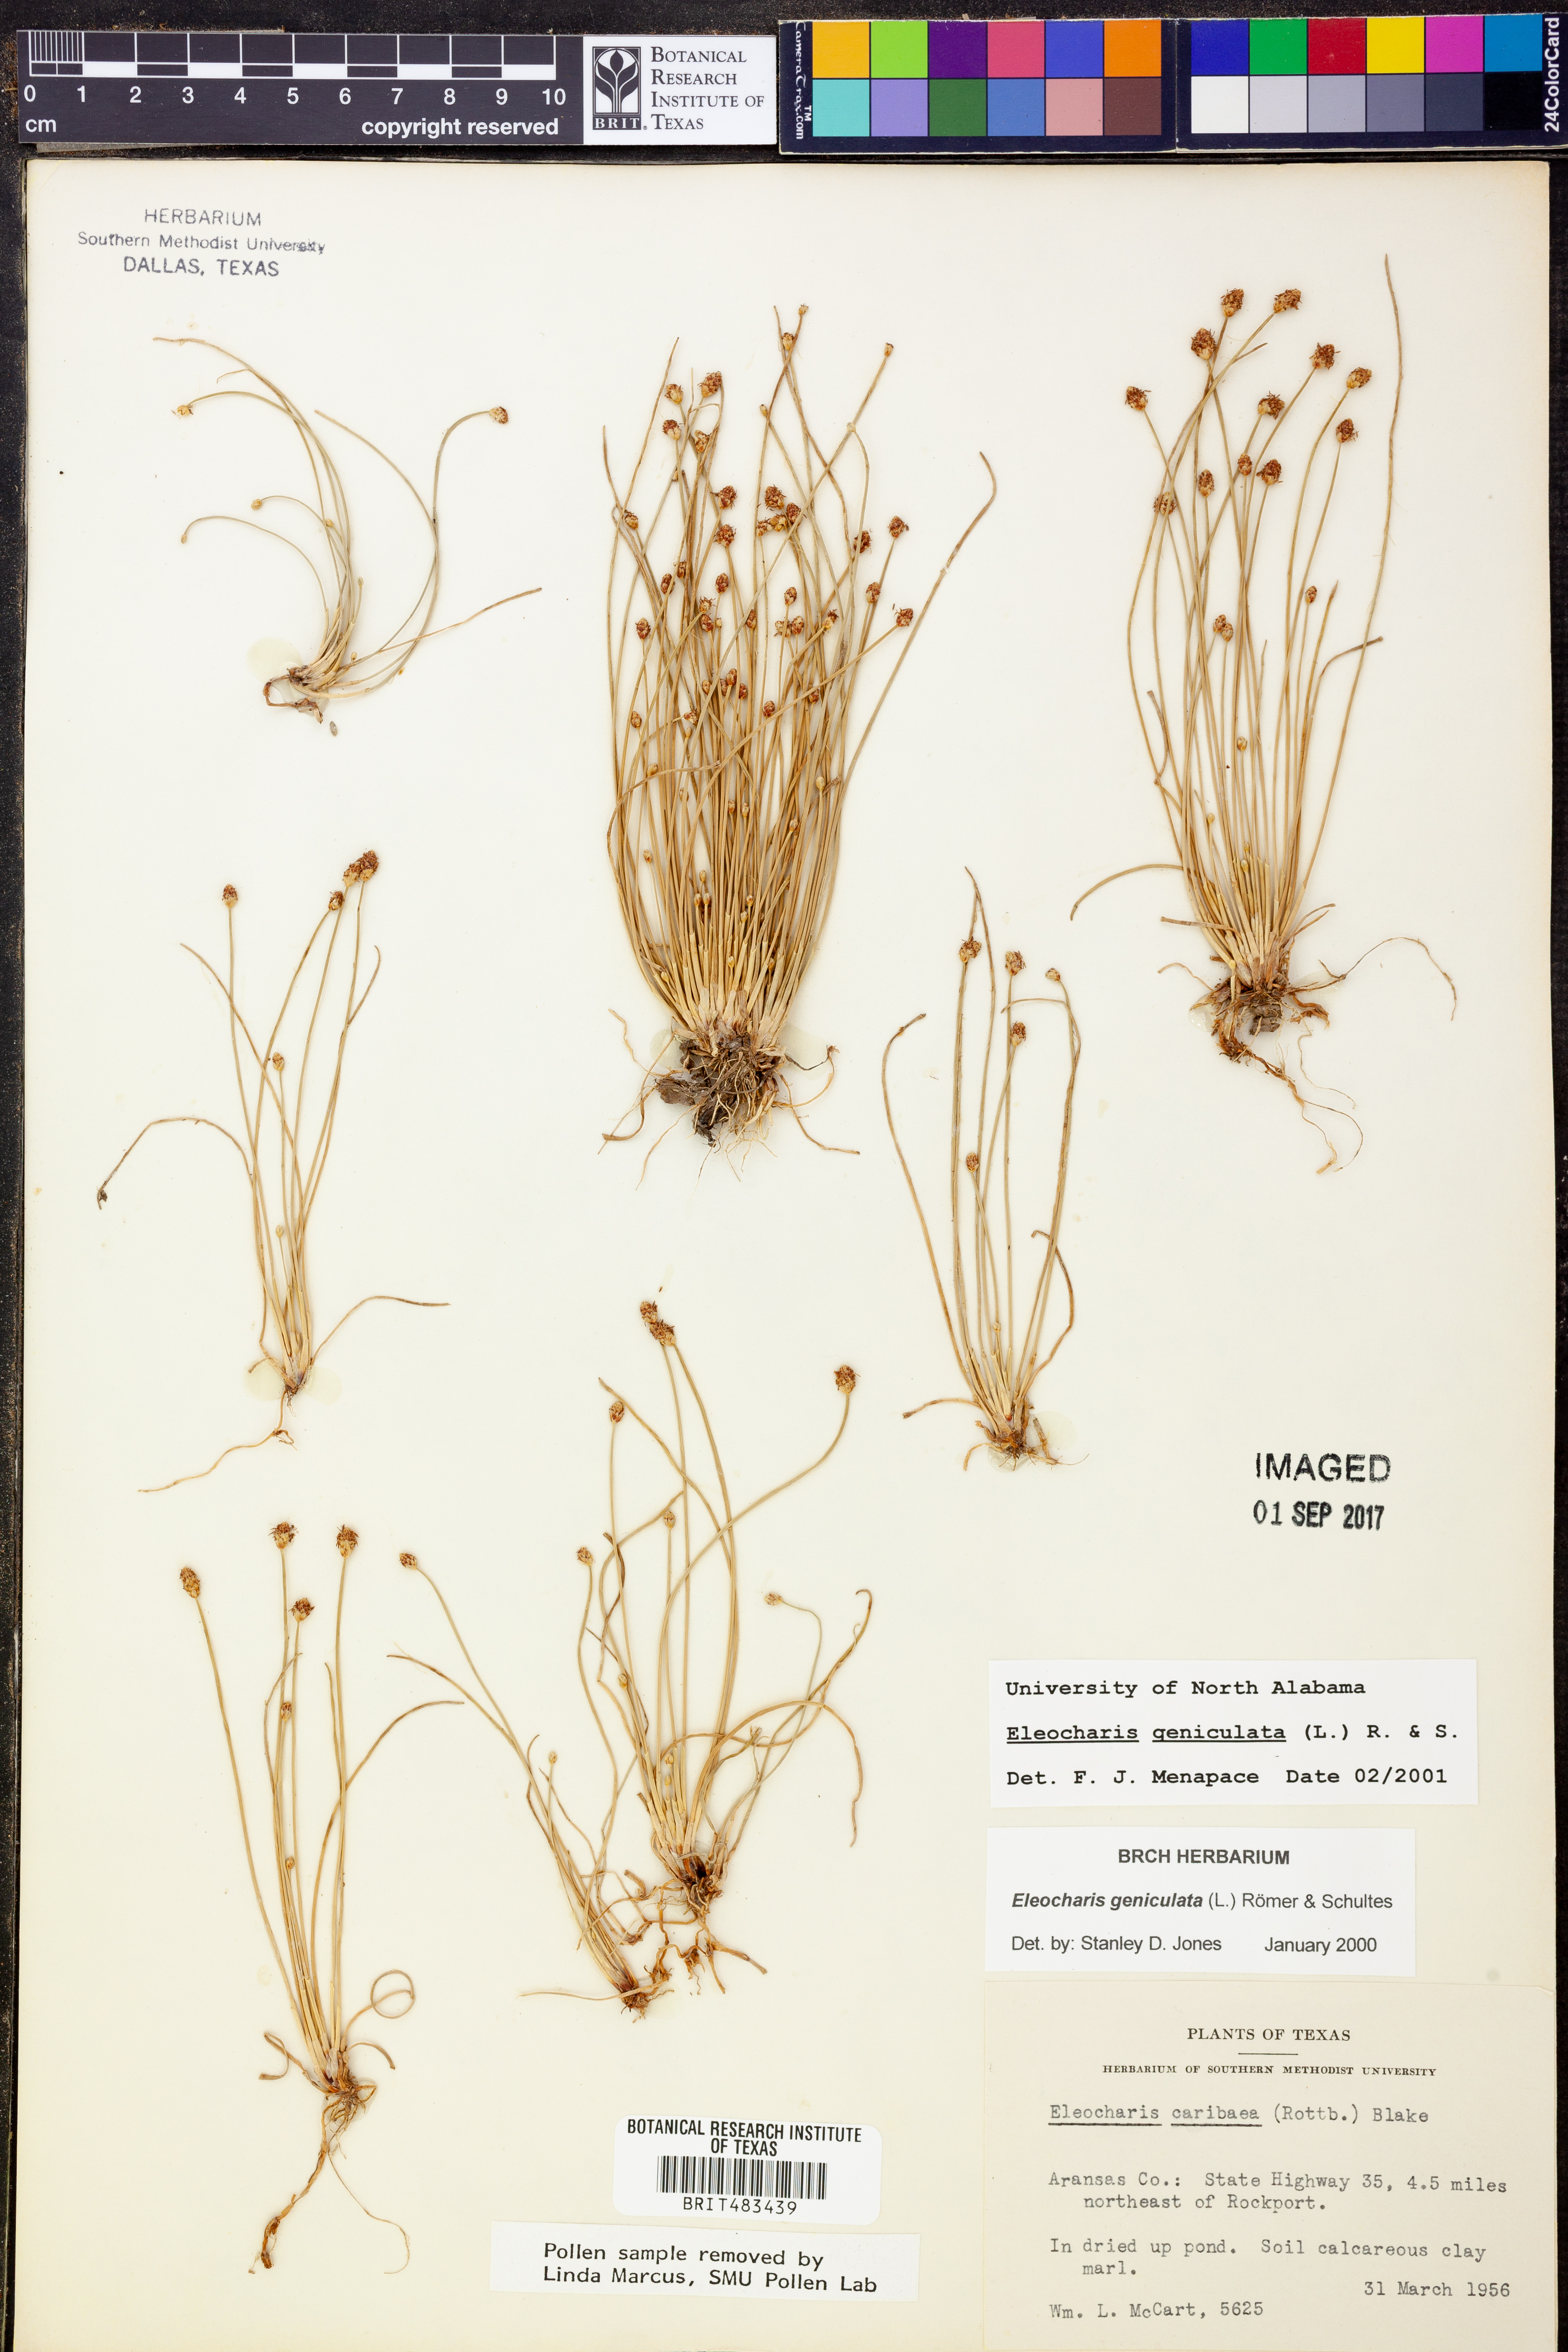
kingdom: Plantae
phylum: Tracheophyta
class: Liliopsida
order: Poales
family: Cyperaceae
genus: Eleocharis
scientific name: Eleocharis geniculata
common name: Canada spikesedge
